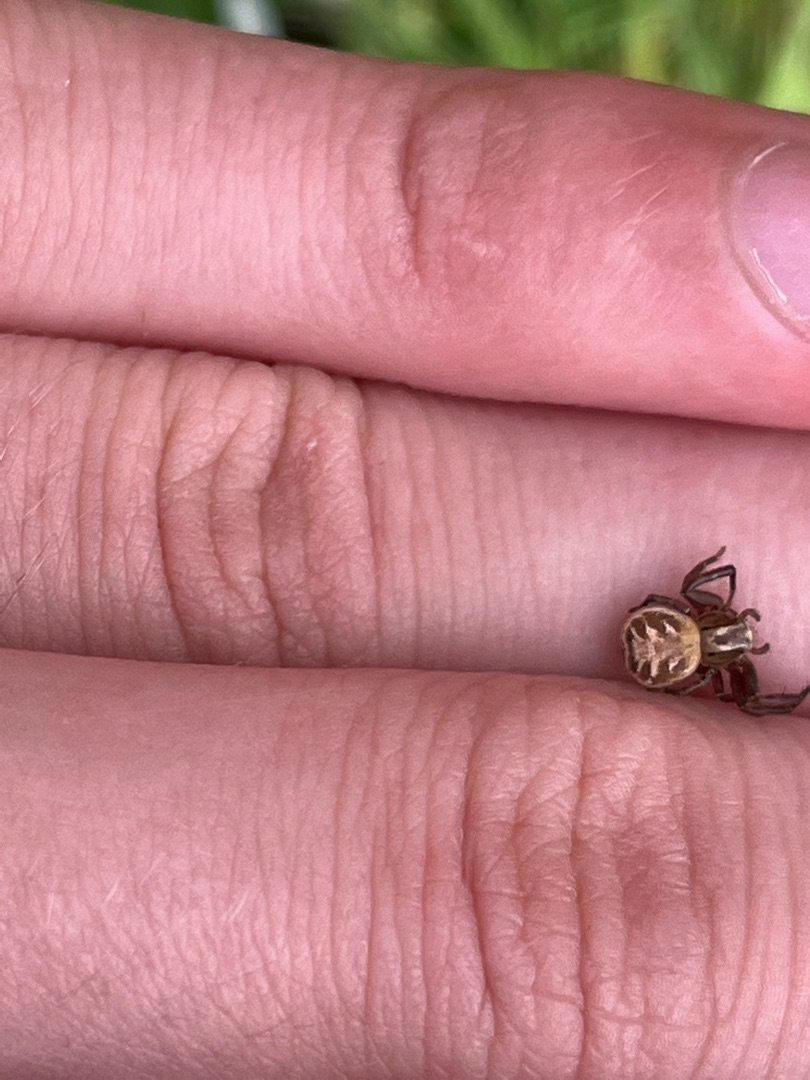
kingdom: Animalia
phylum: Arthropoda
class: Arachnida
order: Araneae
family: Thomisidae
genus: Xysticus
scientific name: Xysticus cristatus
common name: Almindelig krabbeedderkop
